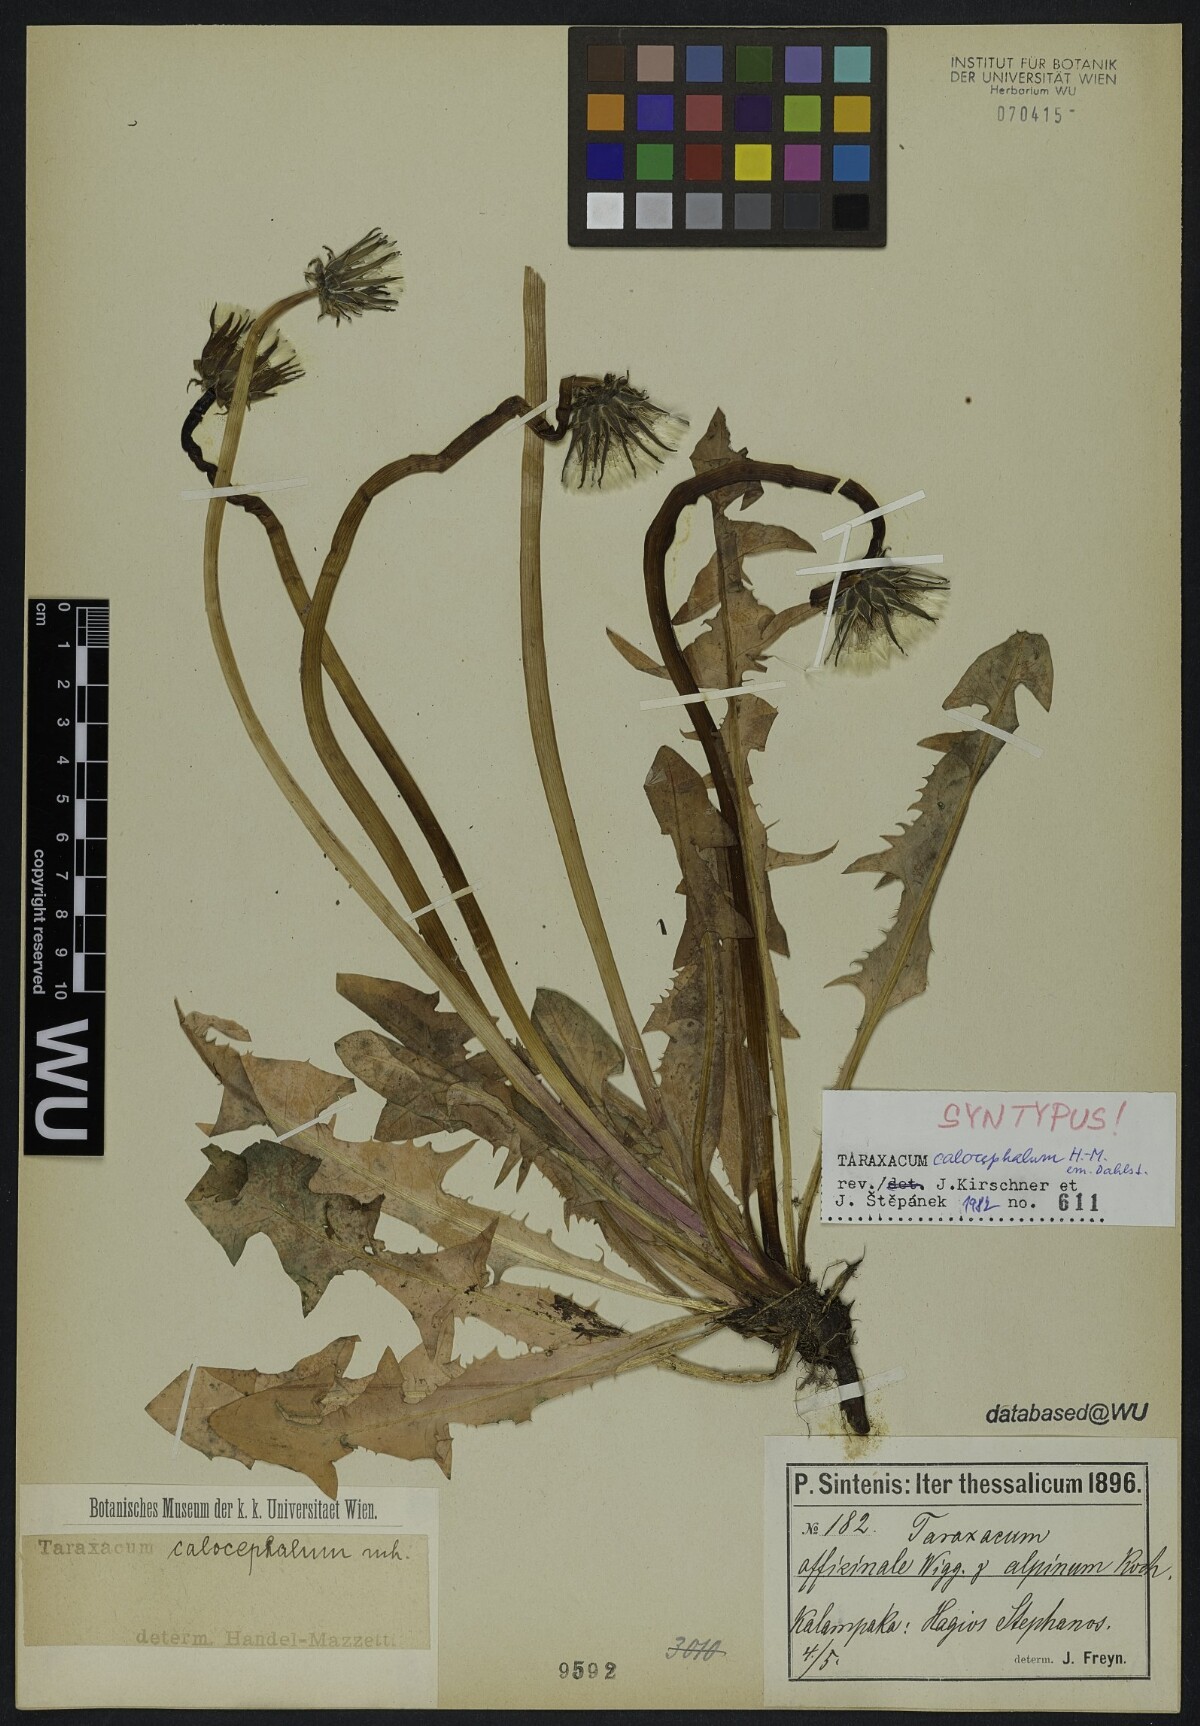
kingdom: Plantae
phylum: Tracheophyta
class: Magnoliopsida
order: Asterales
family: Asteraceae
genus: Taraxacum
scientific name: Taraxacum calocephalum
